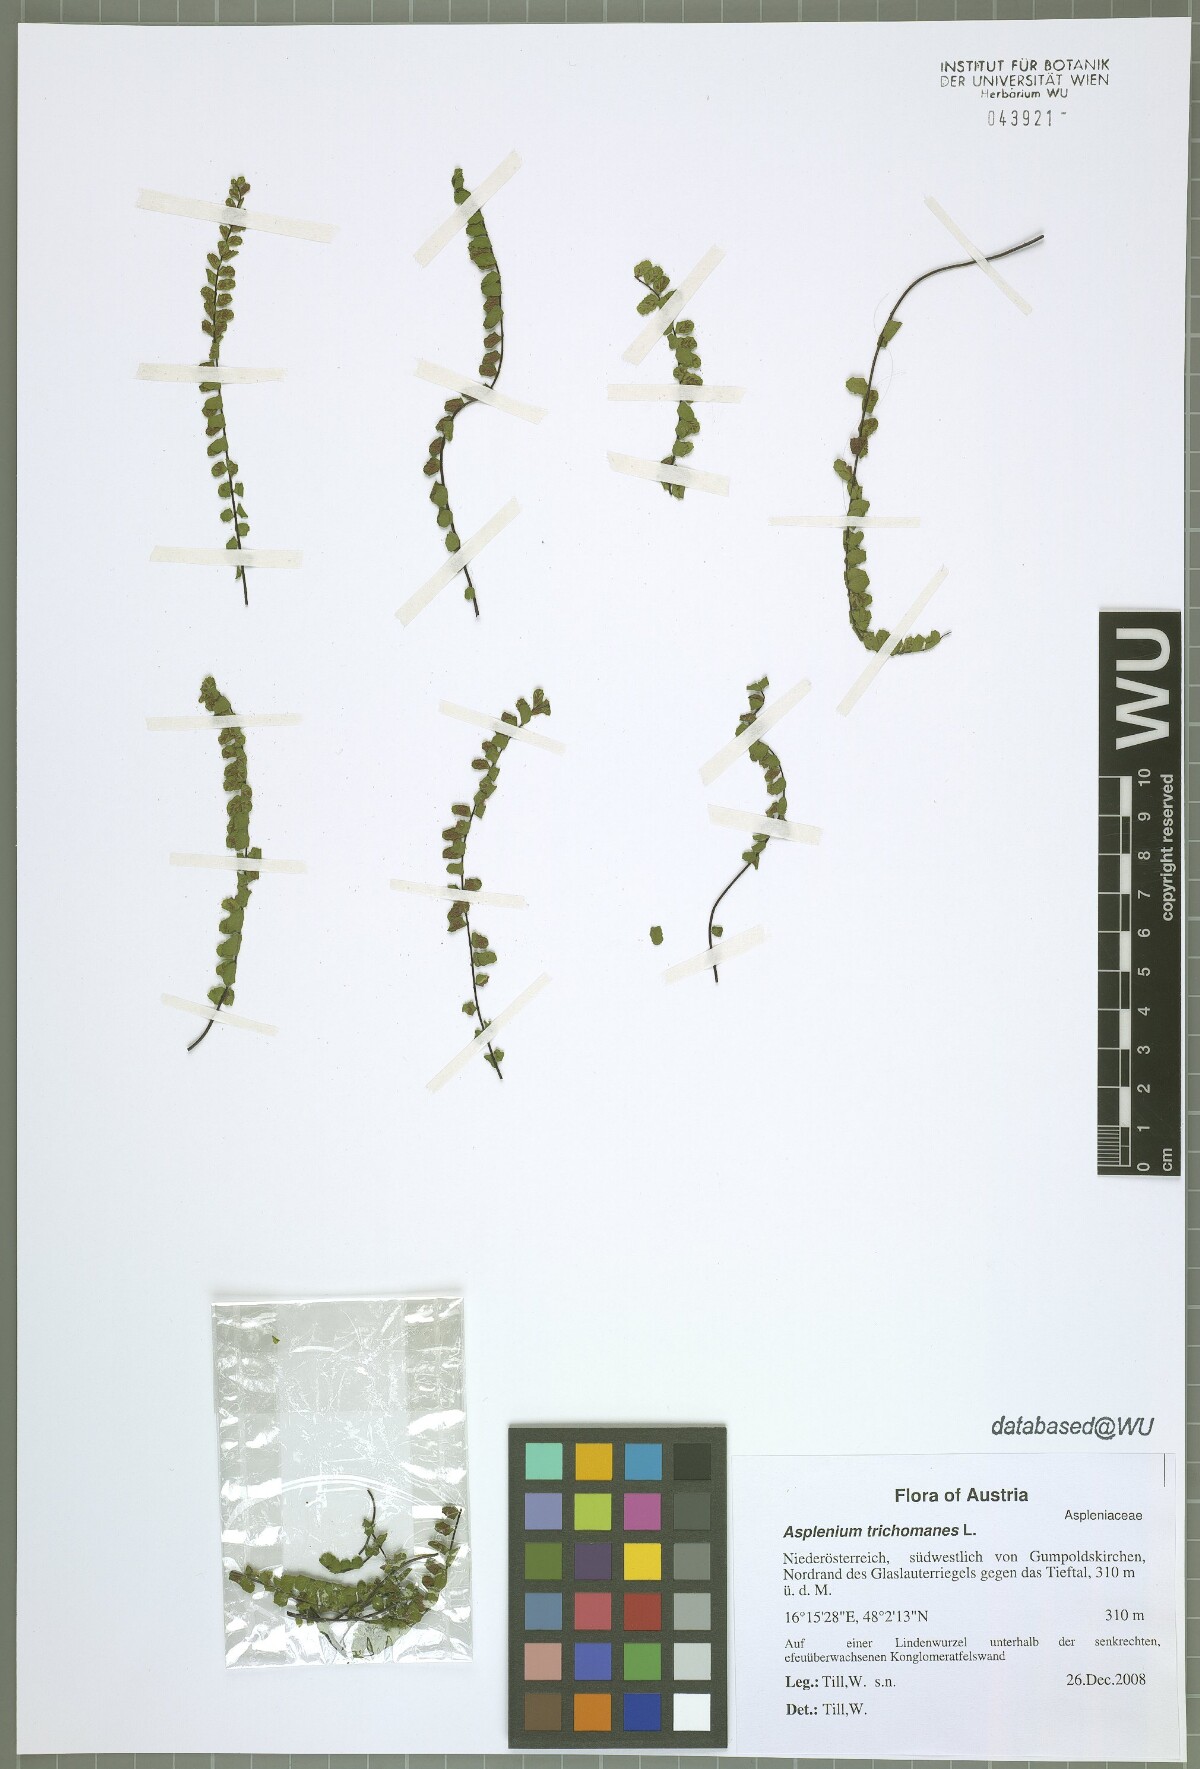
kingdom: Plantae
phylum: Tracheophyta
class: Polypodiopsida
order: Polypodiales
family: Aspleniaceae
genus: Asplenium
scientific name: Asplenium trichomanes
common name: Maidenhair spleenwort
